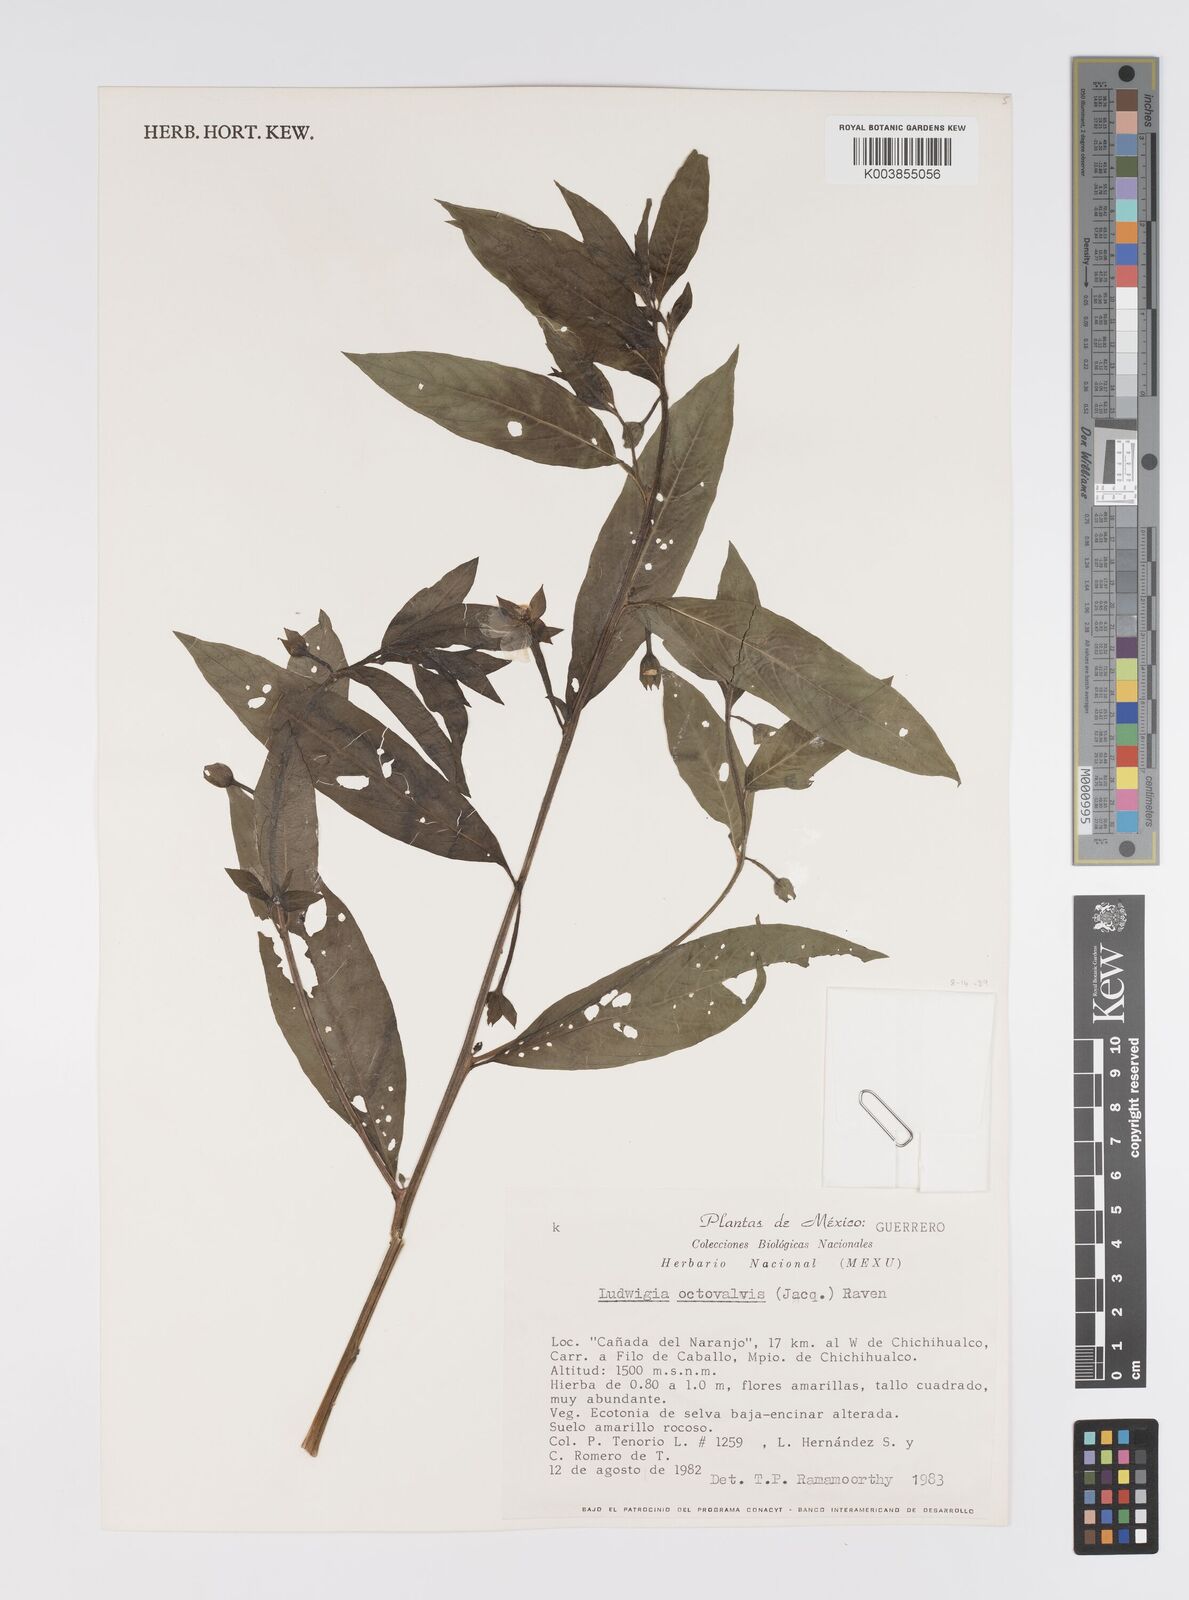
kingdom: Plantae
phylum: Tracheophyta
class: Magnoliopsida
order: Myrtales
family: Onagraceae
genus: Ludwigia
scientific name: Ludwigia octovalvis
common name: Water-primrose
